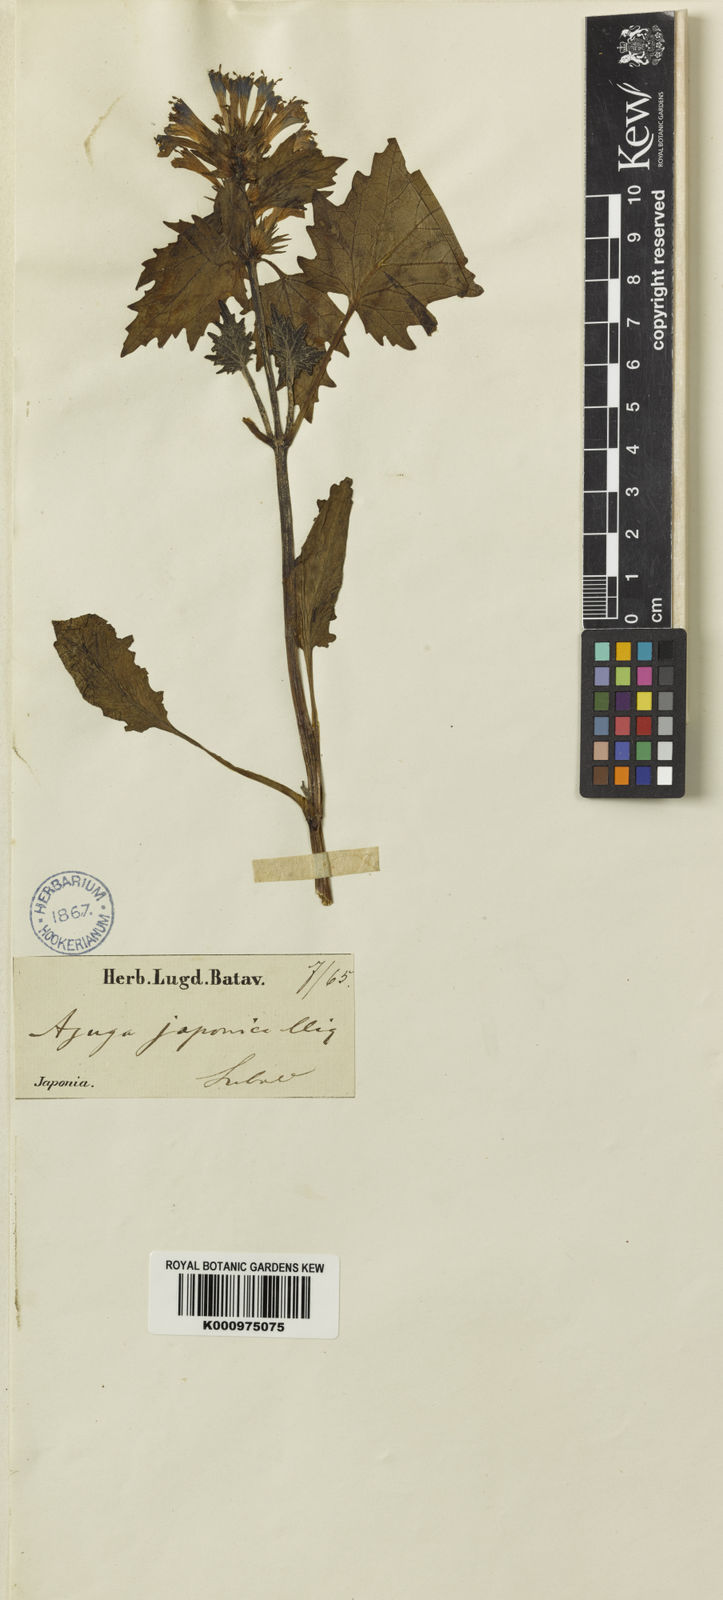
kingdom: Plantae
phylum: Tracheophyta
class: Magnoliopsida
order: Lamiales
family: Lamiaceae
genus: Ajuga
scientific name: Ajuga japonica
